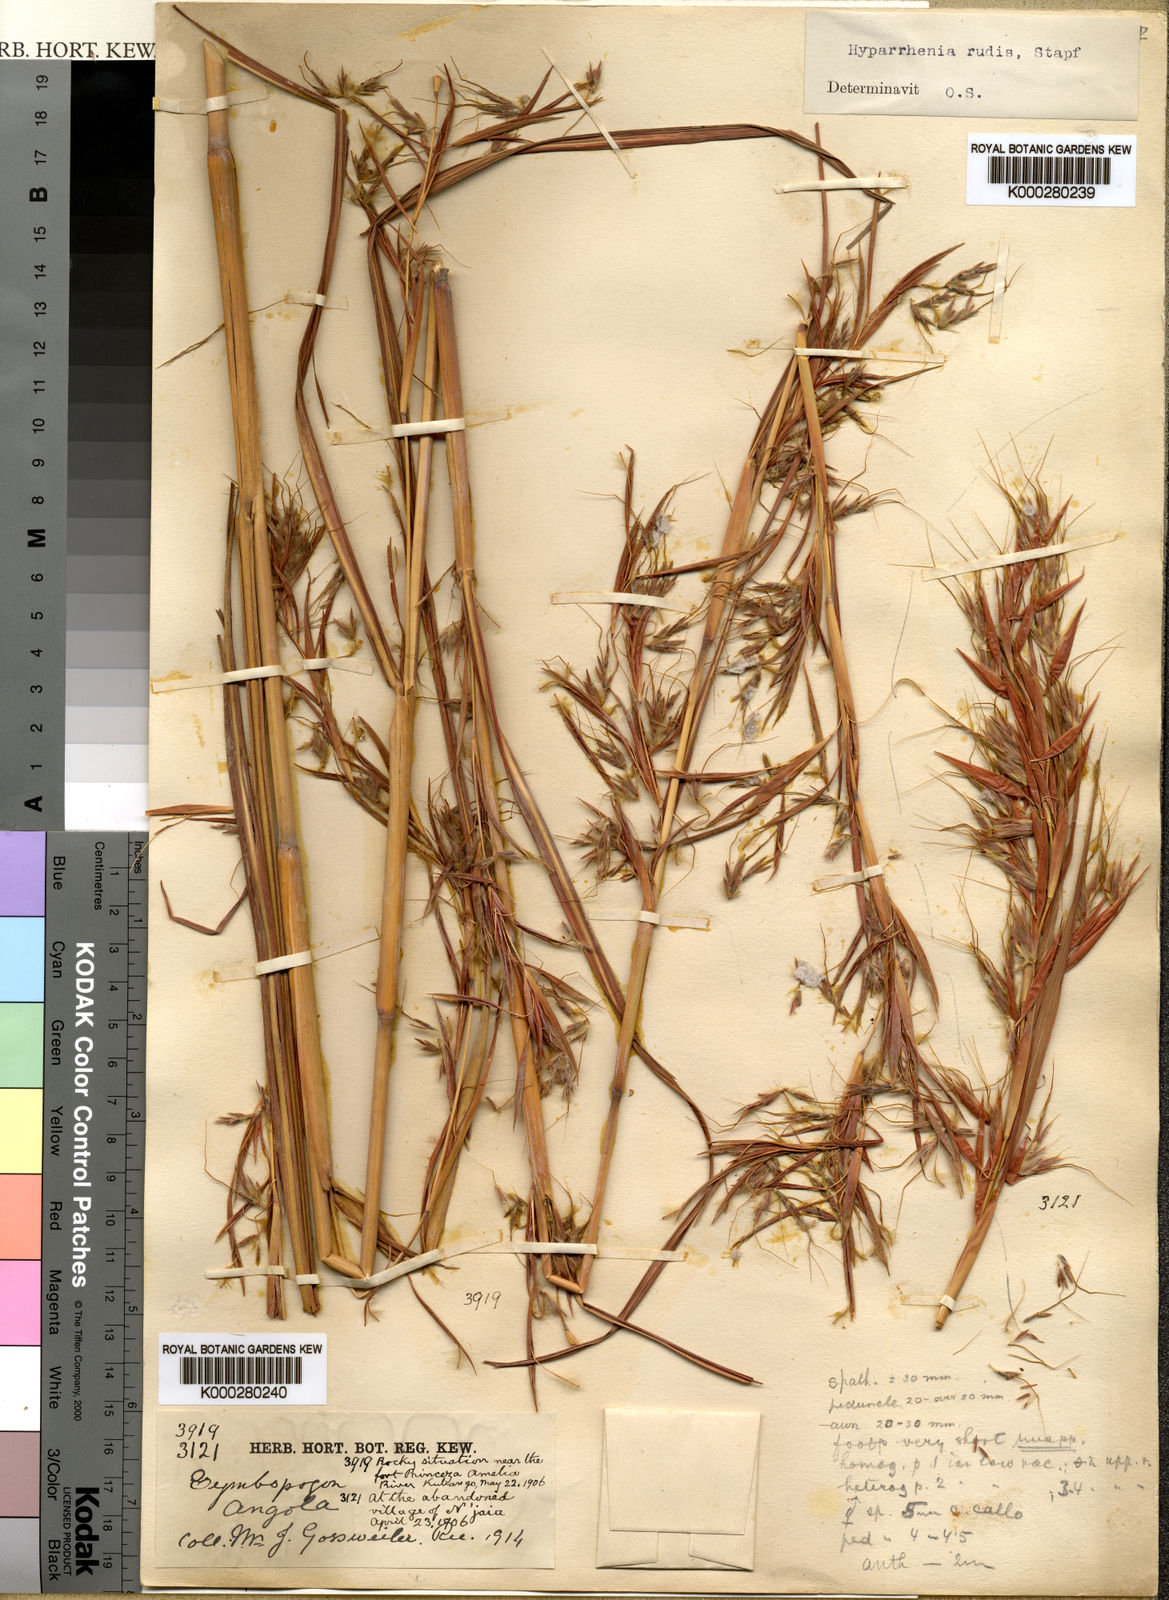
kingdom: Plantae
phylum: Tracheophyta
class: Liliopsida
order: Poales
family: Poaceae
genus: Hyparrhenia
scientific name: Hyparrhenia rudis
